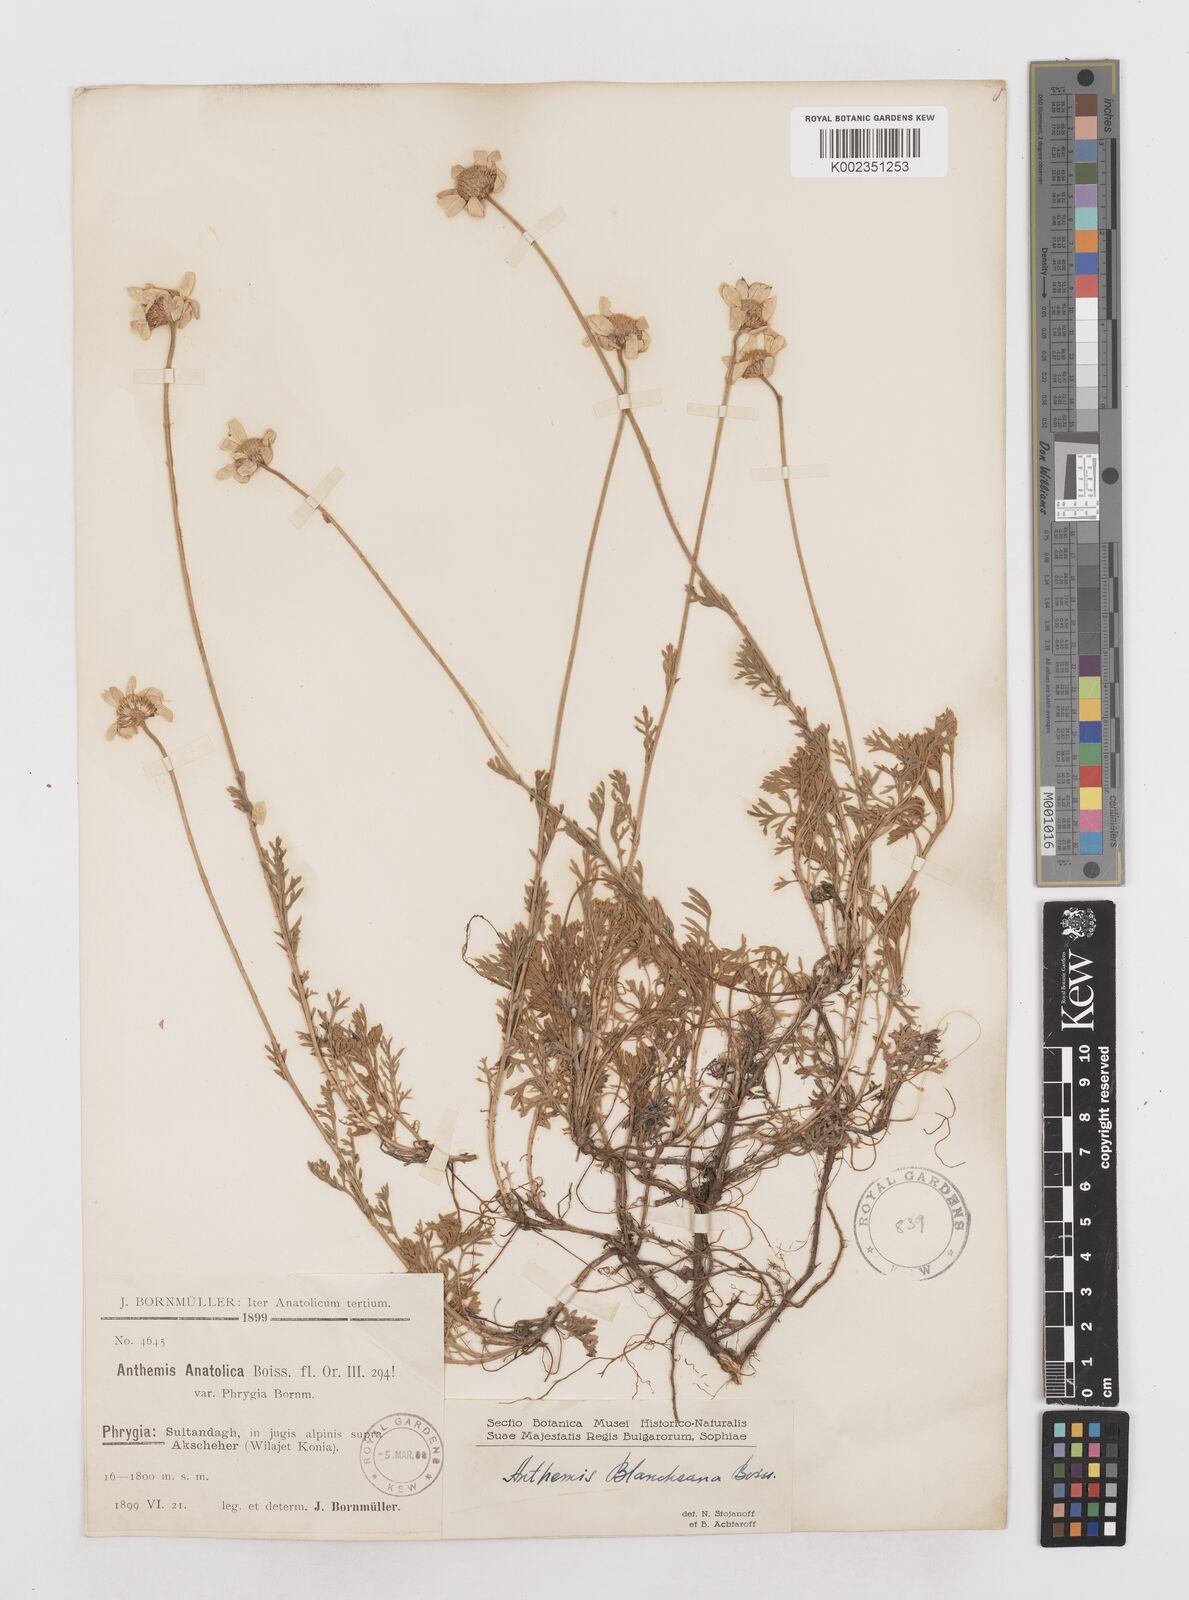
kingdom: Plantae
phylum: Tracheophyta
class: Magnoliopsida
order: Asterales
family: Asteraceae
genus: Anthemis
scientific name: Anthemis cretica
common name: Mountain dog-daisy
